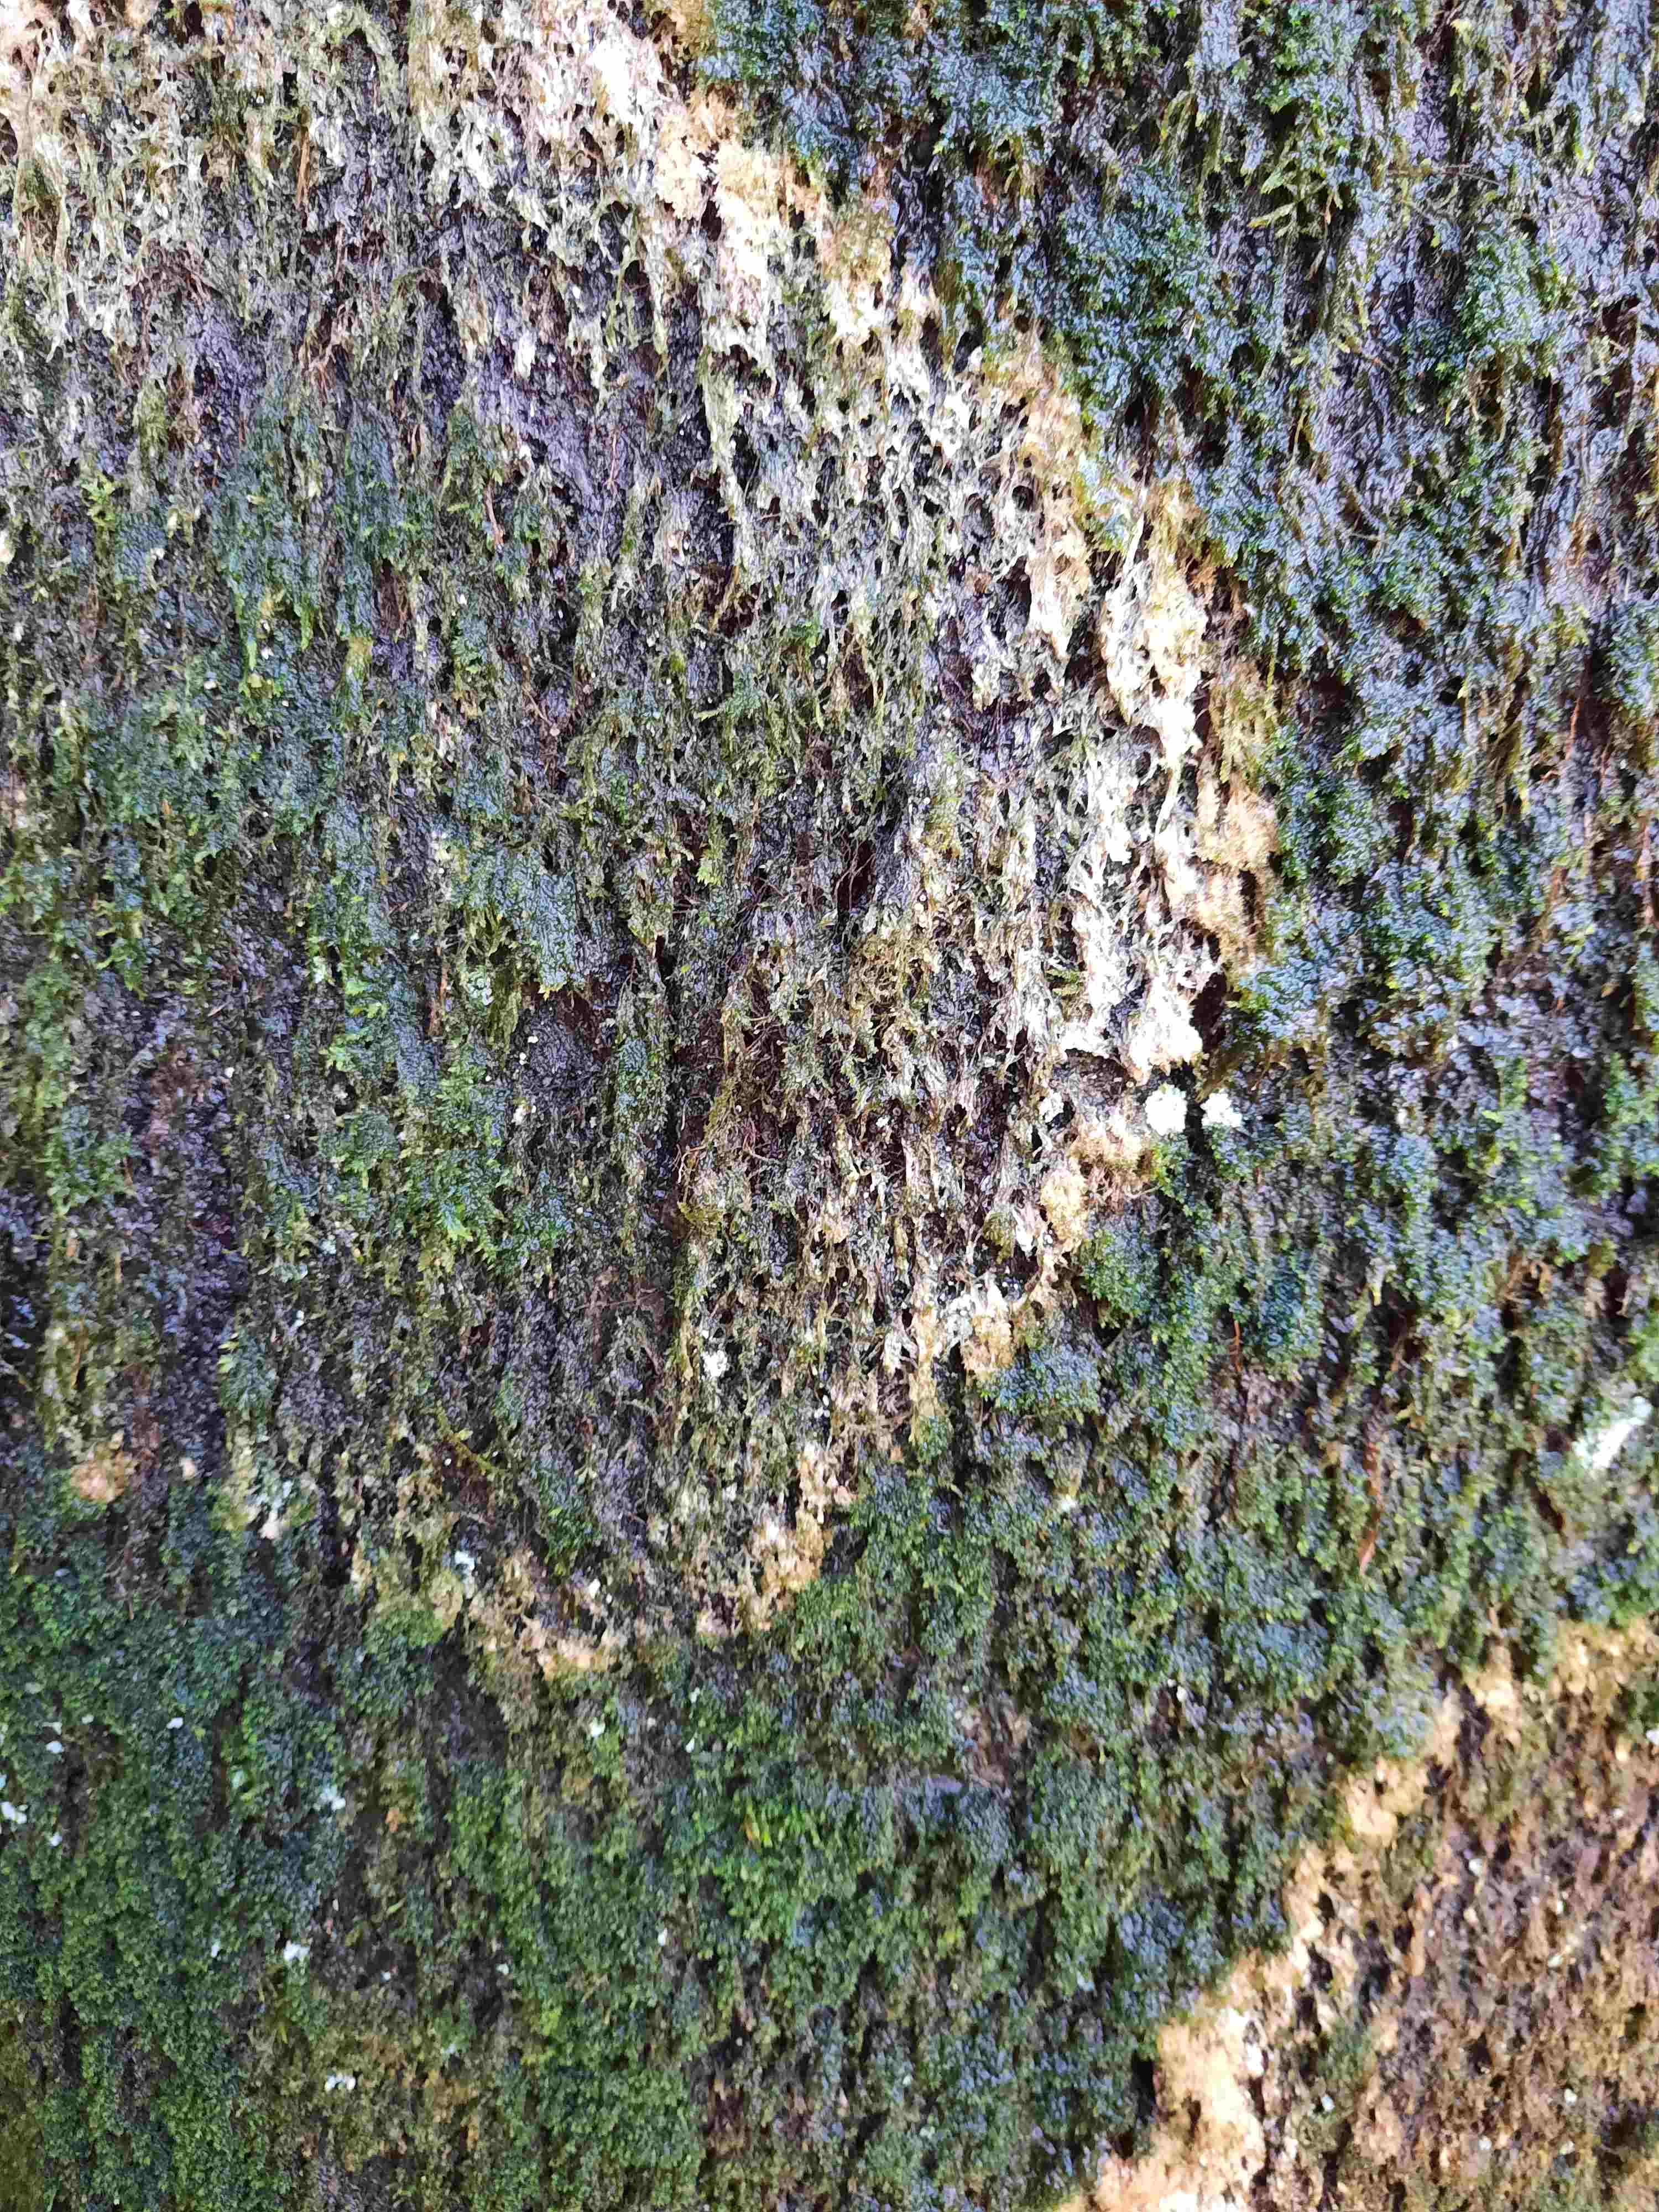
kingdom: Fungi
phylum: Basidiomycota
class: Agaricomycetes
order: Agaricales
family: Chromocyphellaceae
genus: Chromocyphella
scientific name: Chromocyphella muscicola
